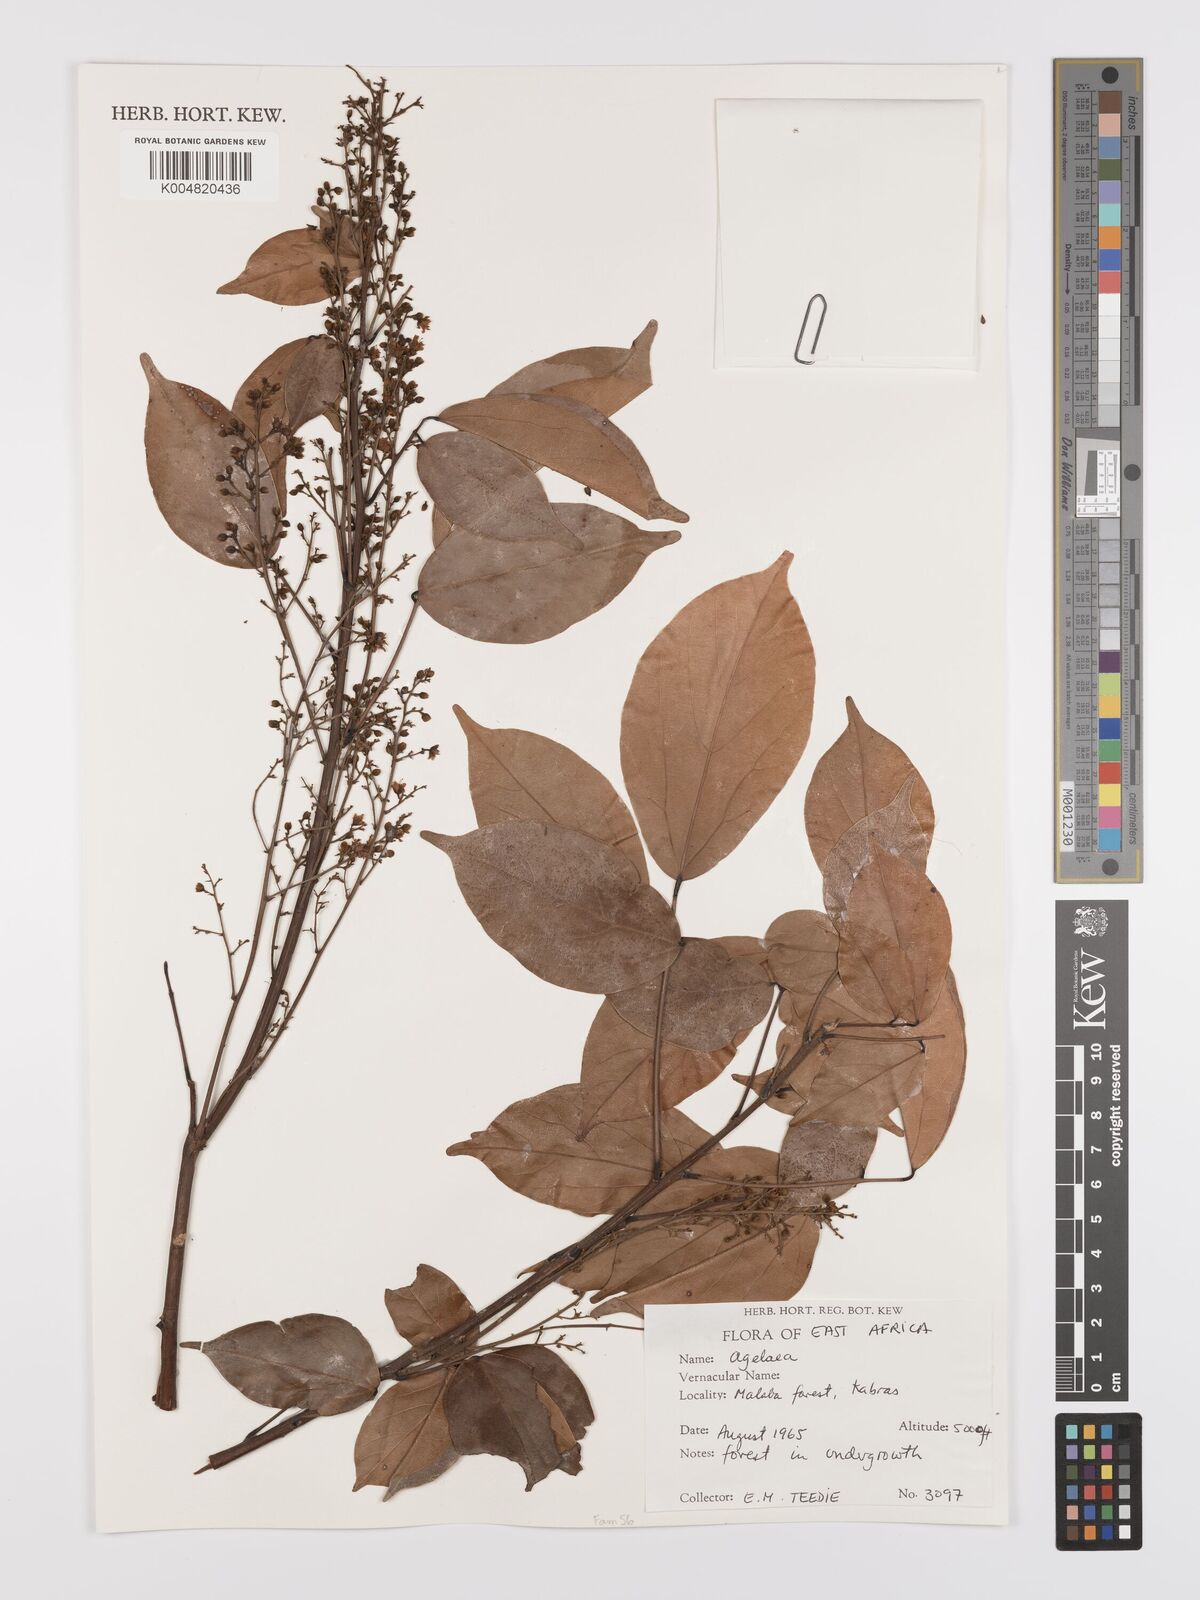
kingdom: Plantae
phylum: Tracheophyta
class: Magnoliopsida
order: Oxalidales
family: Connaraceae
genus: Agelaea
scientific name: Agelaea
